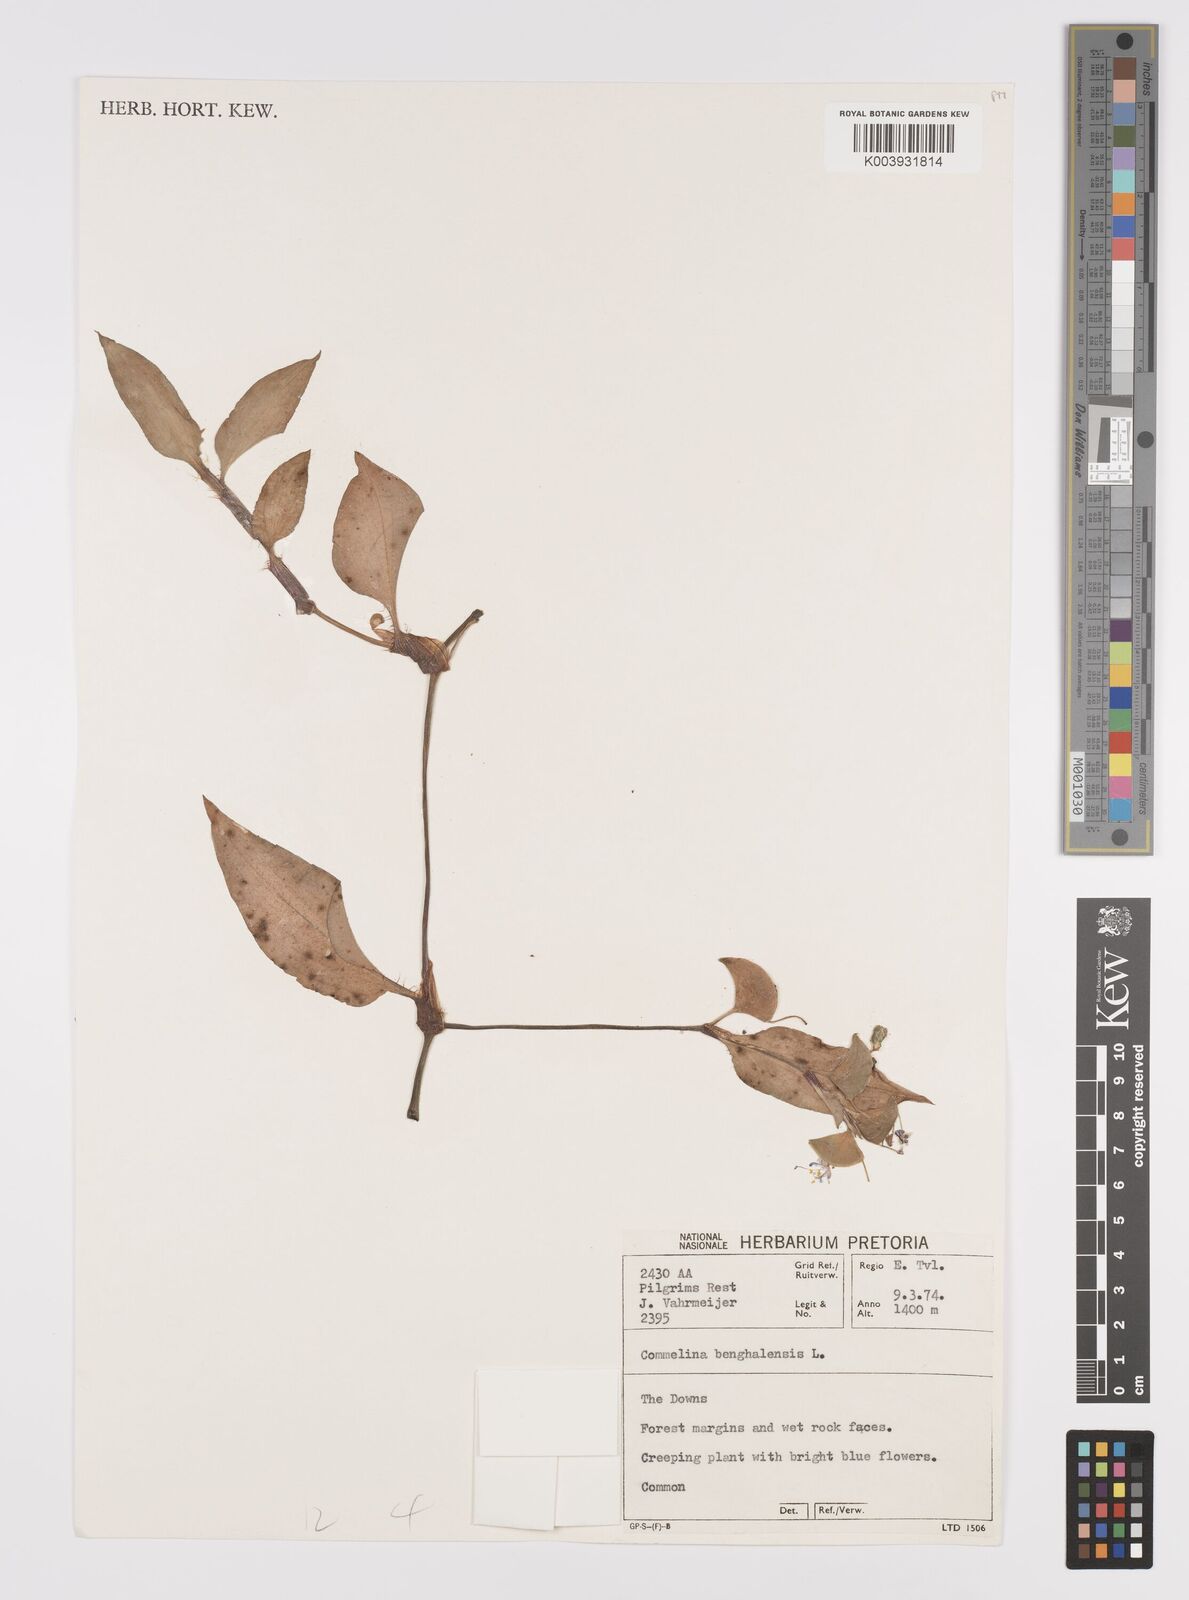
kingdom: Plantae
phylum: Tracheophyta
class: Liliopsida
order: Commelinales
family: Commelinaceae
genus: Commelina
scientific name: Commelina benghalensis
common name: Jio
